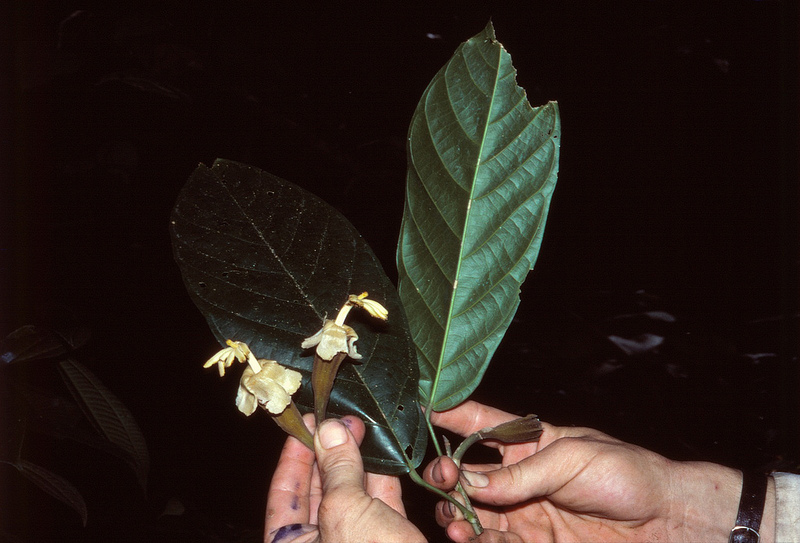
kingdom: Plantae
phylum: Tracheophyta
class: Magnoliopsida
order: Malvales
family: Malvaceae
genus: Matisia
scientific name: Matisia huallagensis
